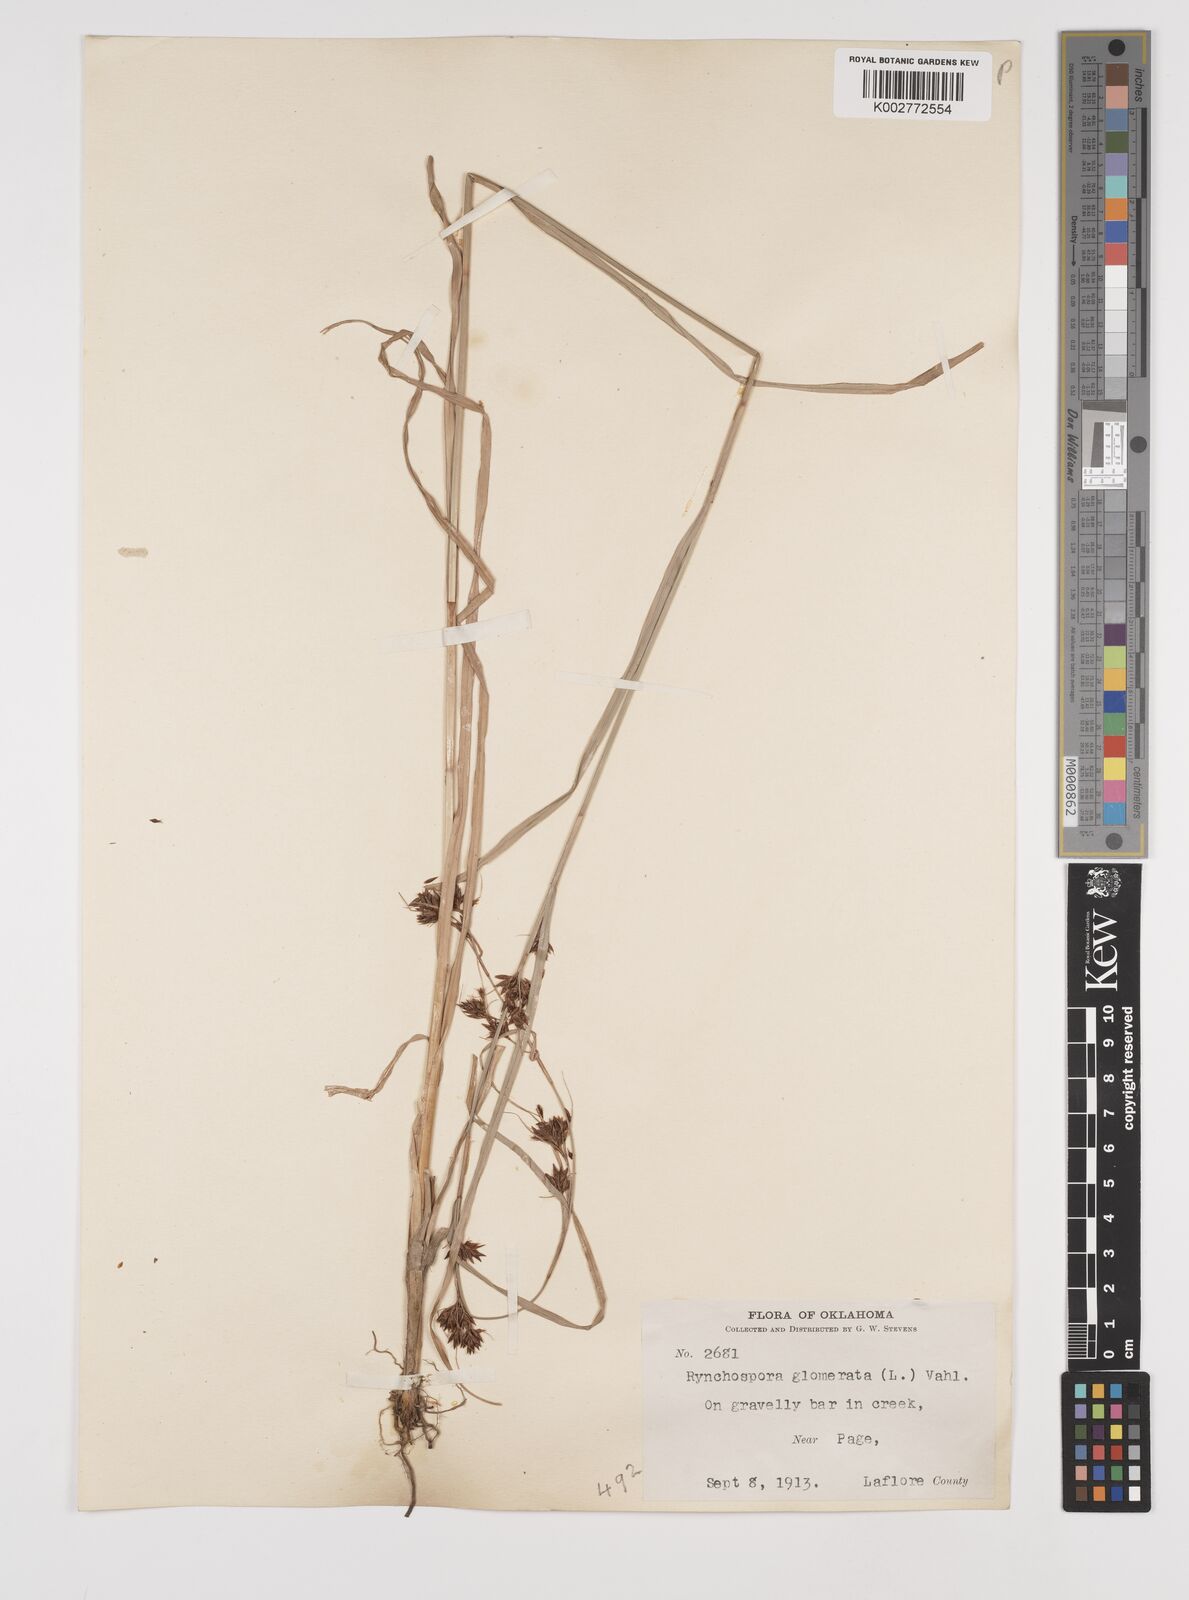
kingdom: Plantae
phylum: Tracheophyta
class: Liliopsida
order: Poales
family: Cyperaceae
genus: Rhynchospora
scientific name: Rhynchospora glomerata
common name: Cluster beak sedge
